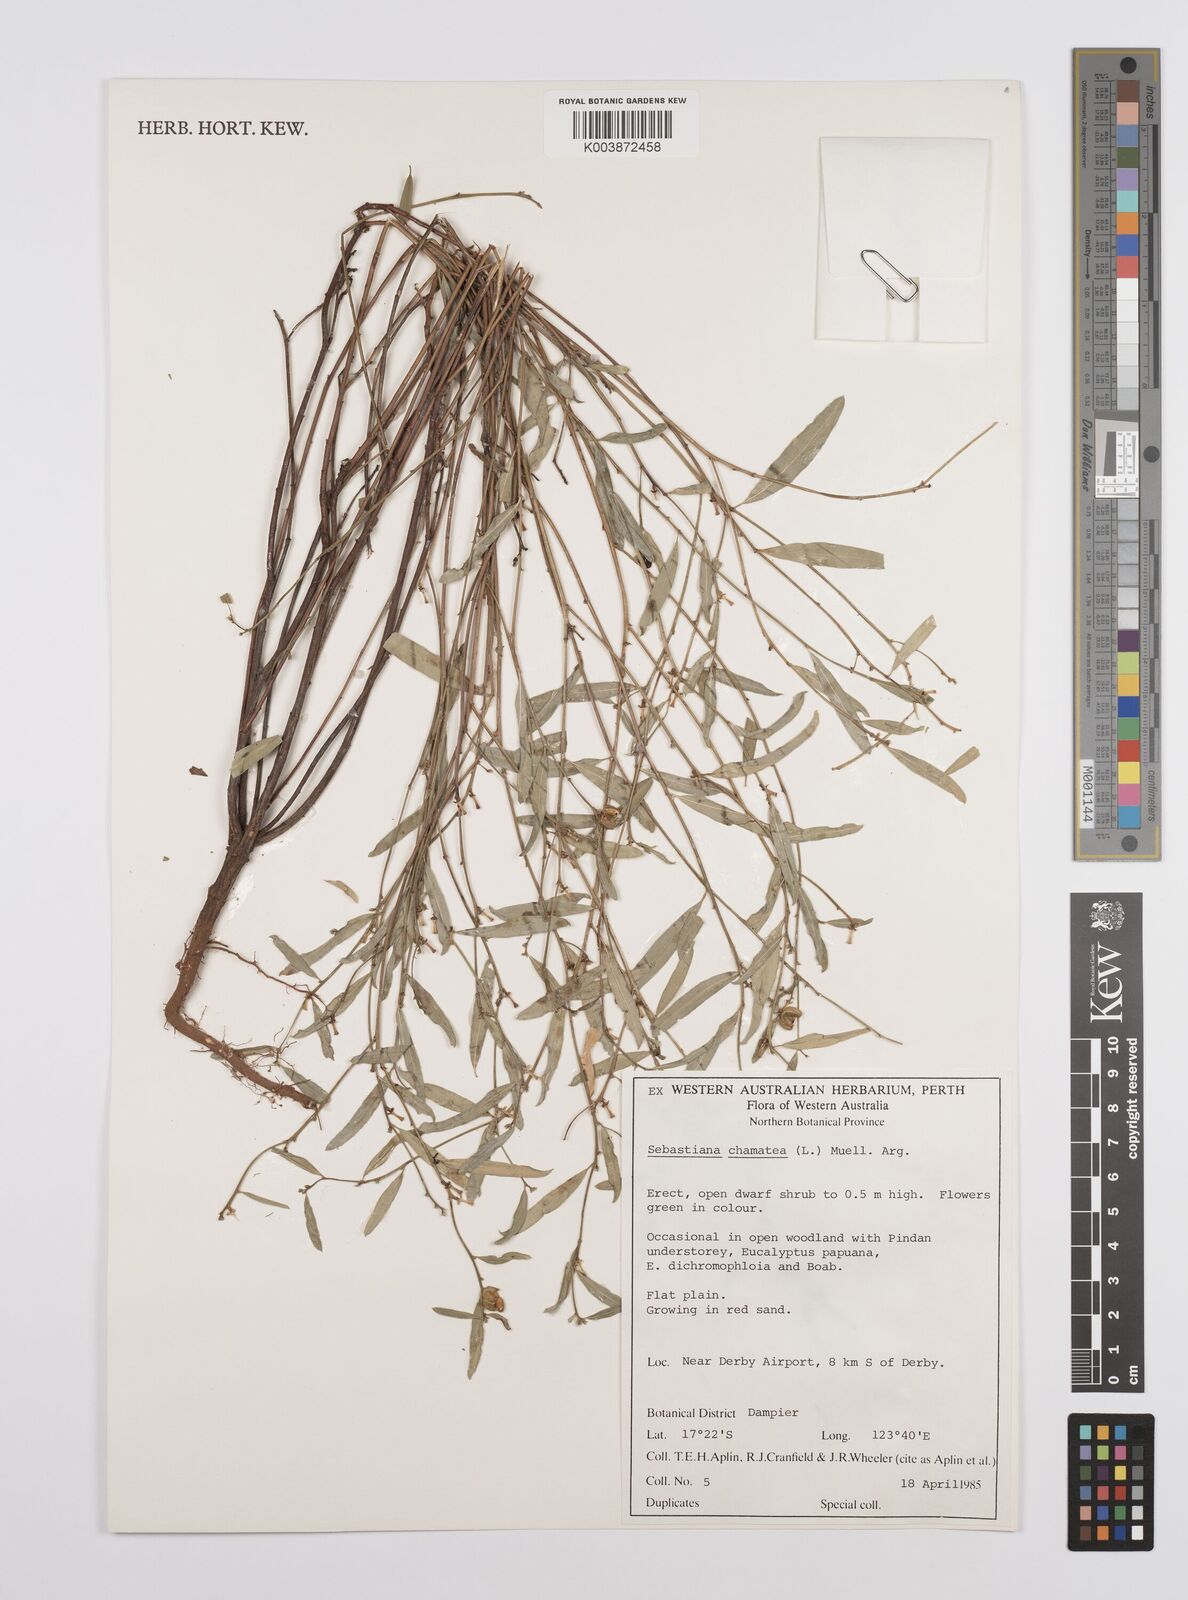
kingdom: Plantae
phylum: Tracheophyta
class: Magnoliopsida
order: Malpighiales
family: Euphorbiaceae
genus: Microstachys
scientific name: Microstachys chamaelea
